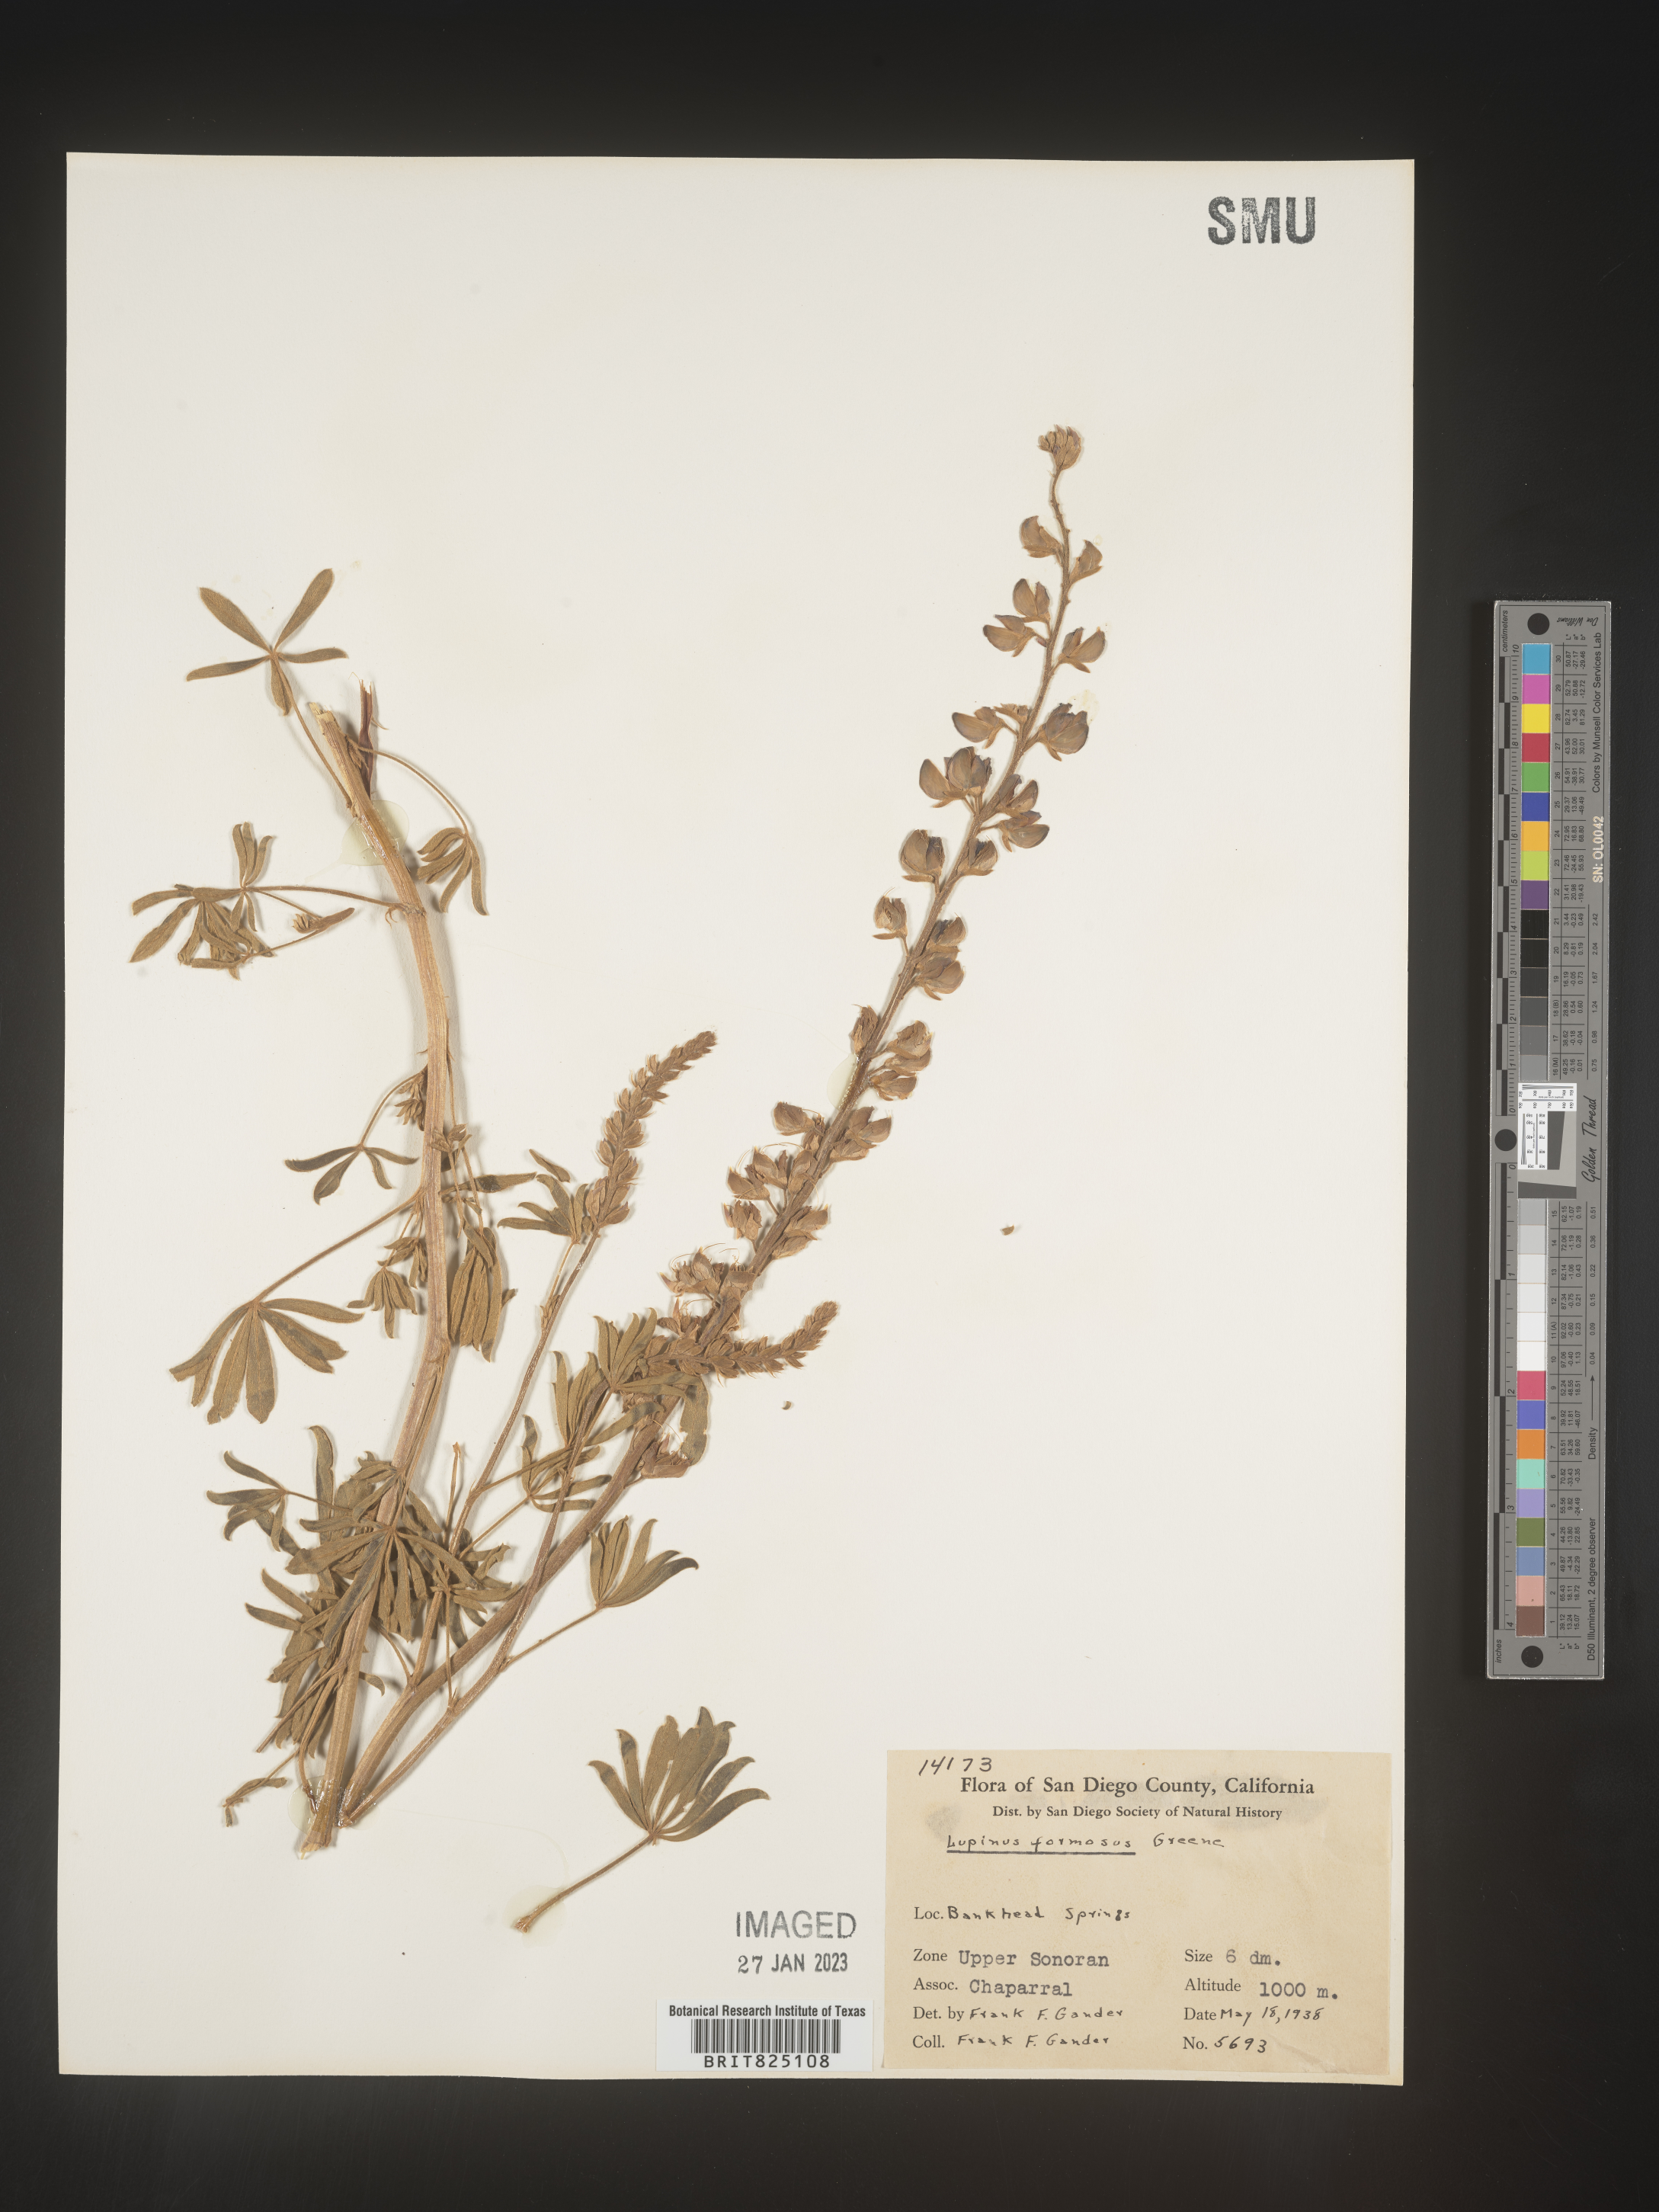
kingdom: Plantae
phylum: Tracheophyta
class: Magnoliopsida
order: Fabales
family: Fabaceae
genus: Lupinus
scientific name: Lupinus
